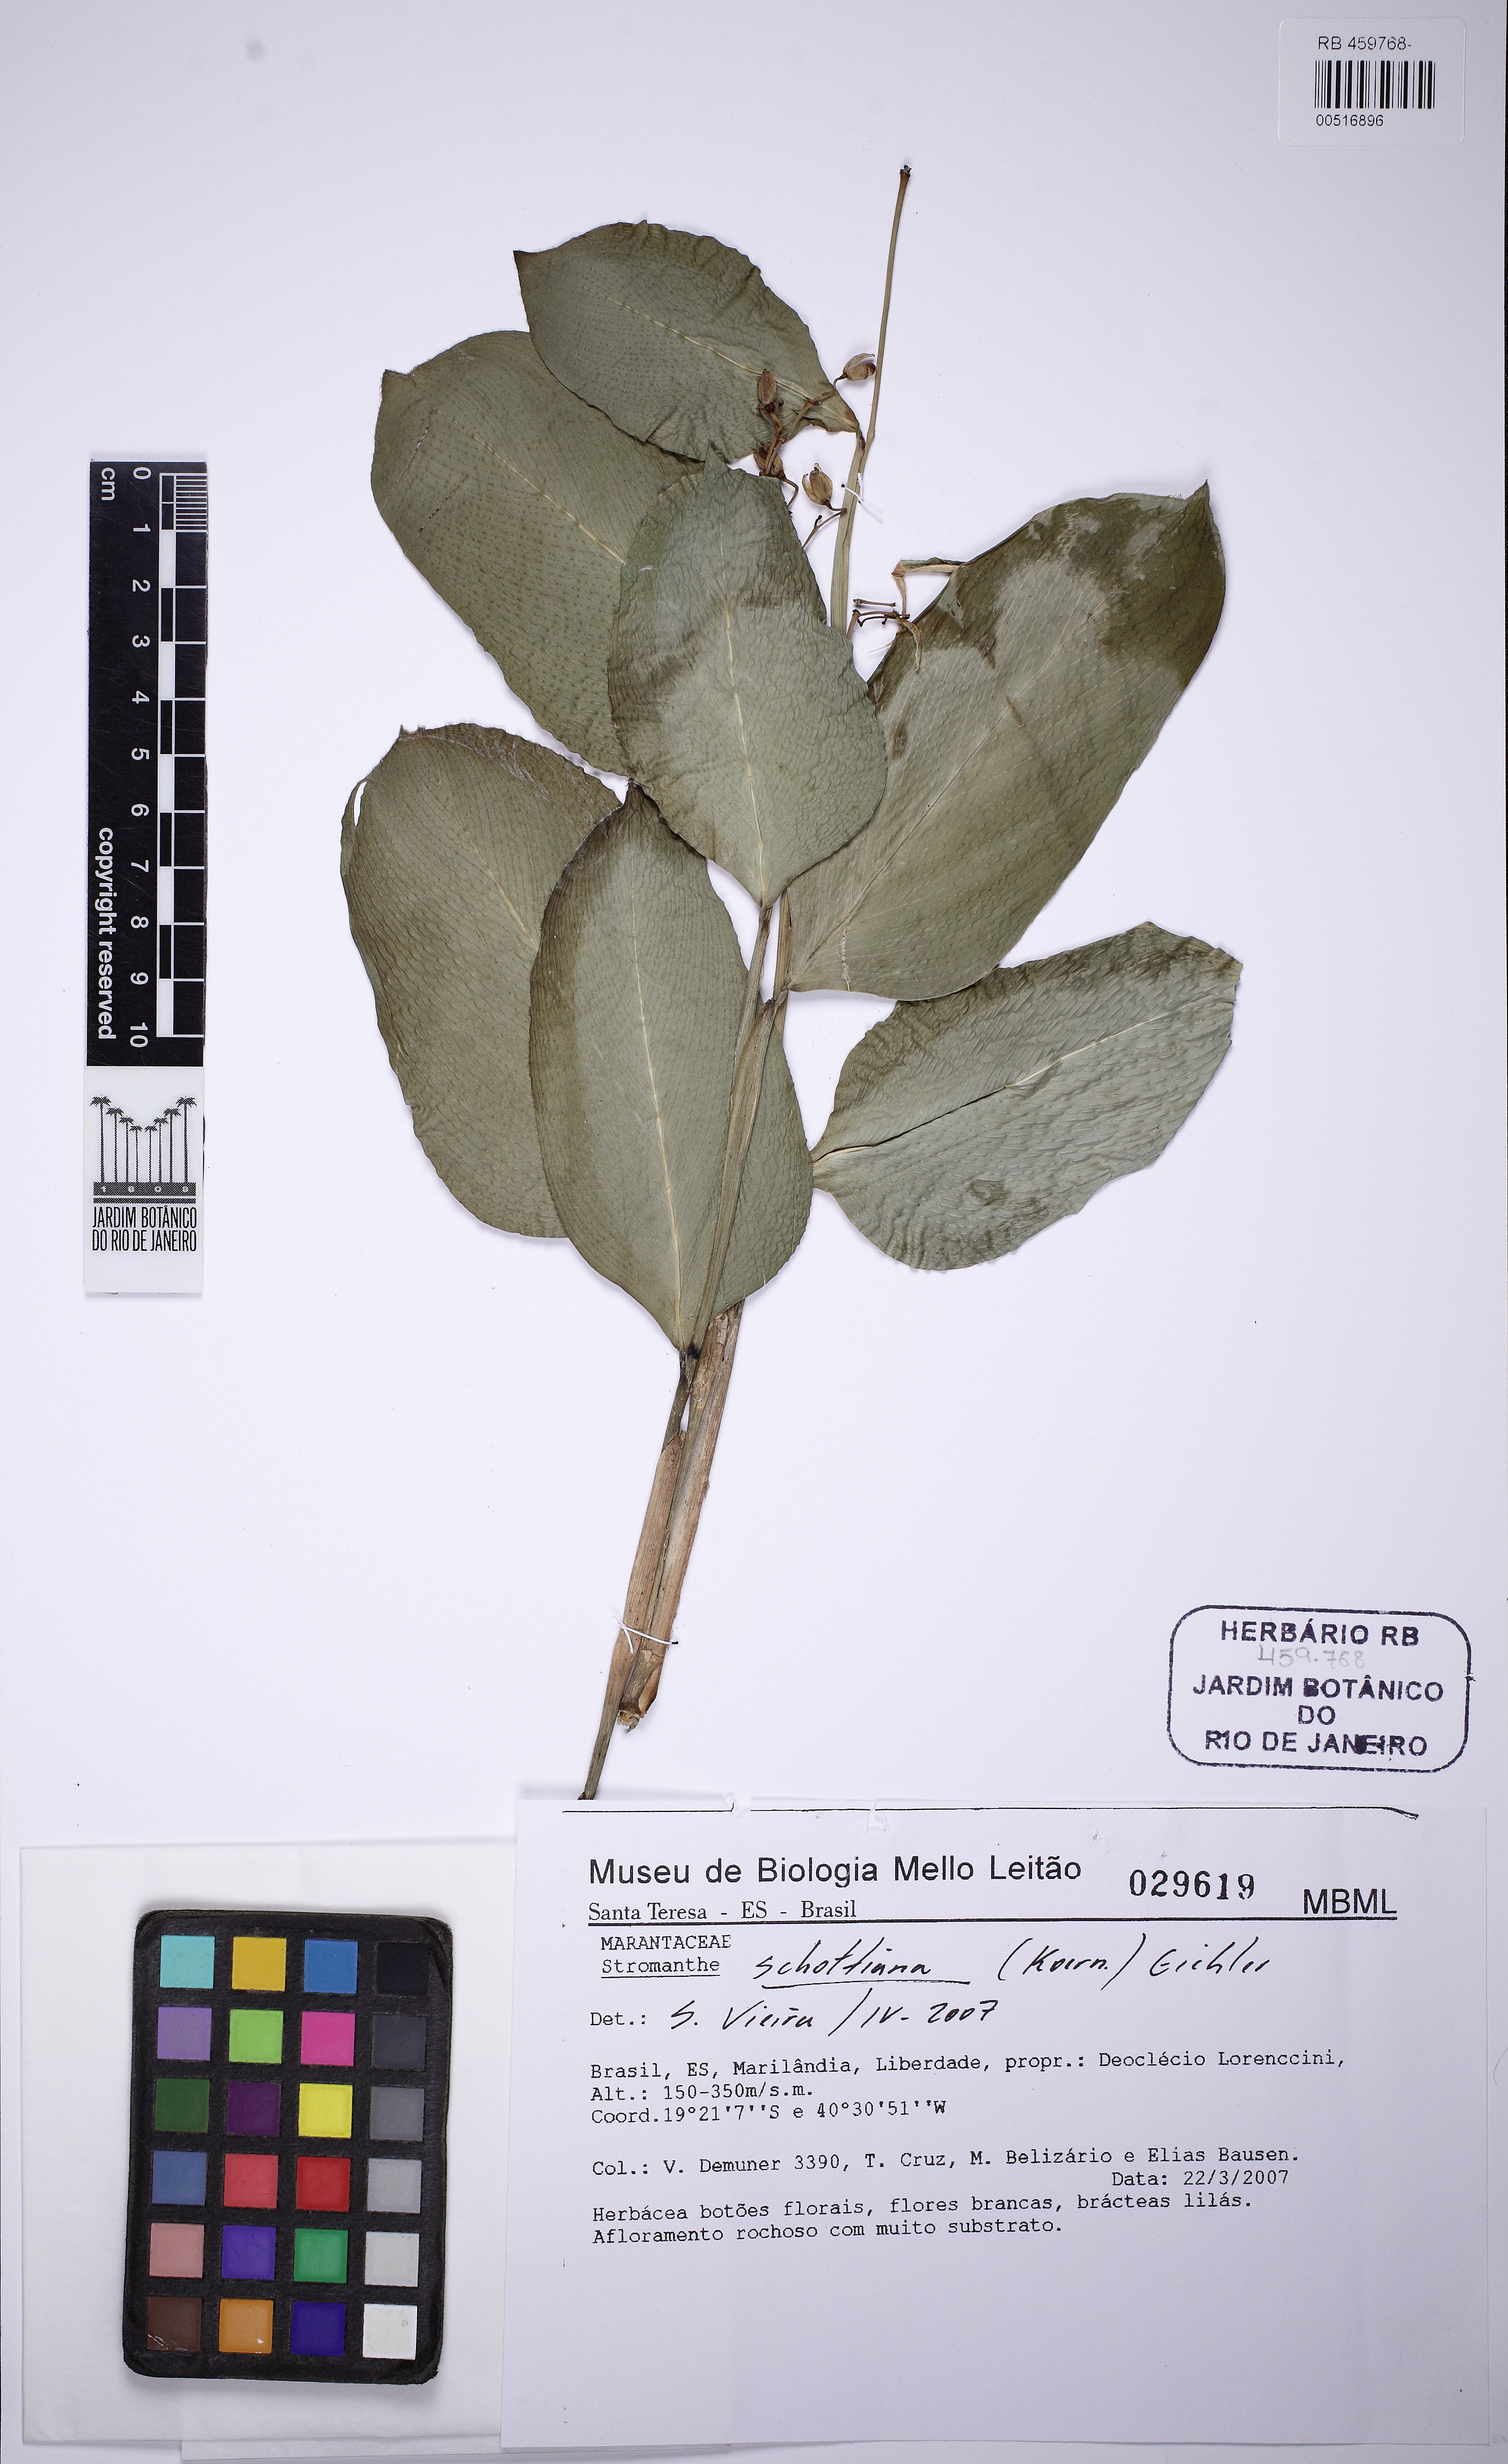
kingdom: Plantae
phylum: Tracheophyta
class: Liliopsida
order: Zingiberales
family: Marantaceae
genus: Stromanthe
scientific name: Stromanthe schottiana
